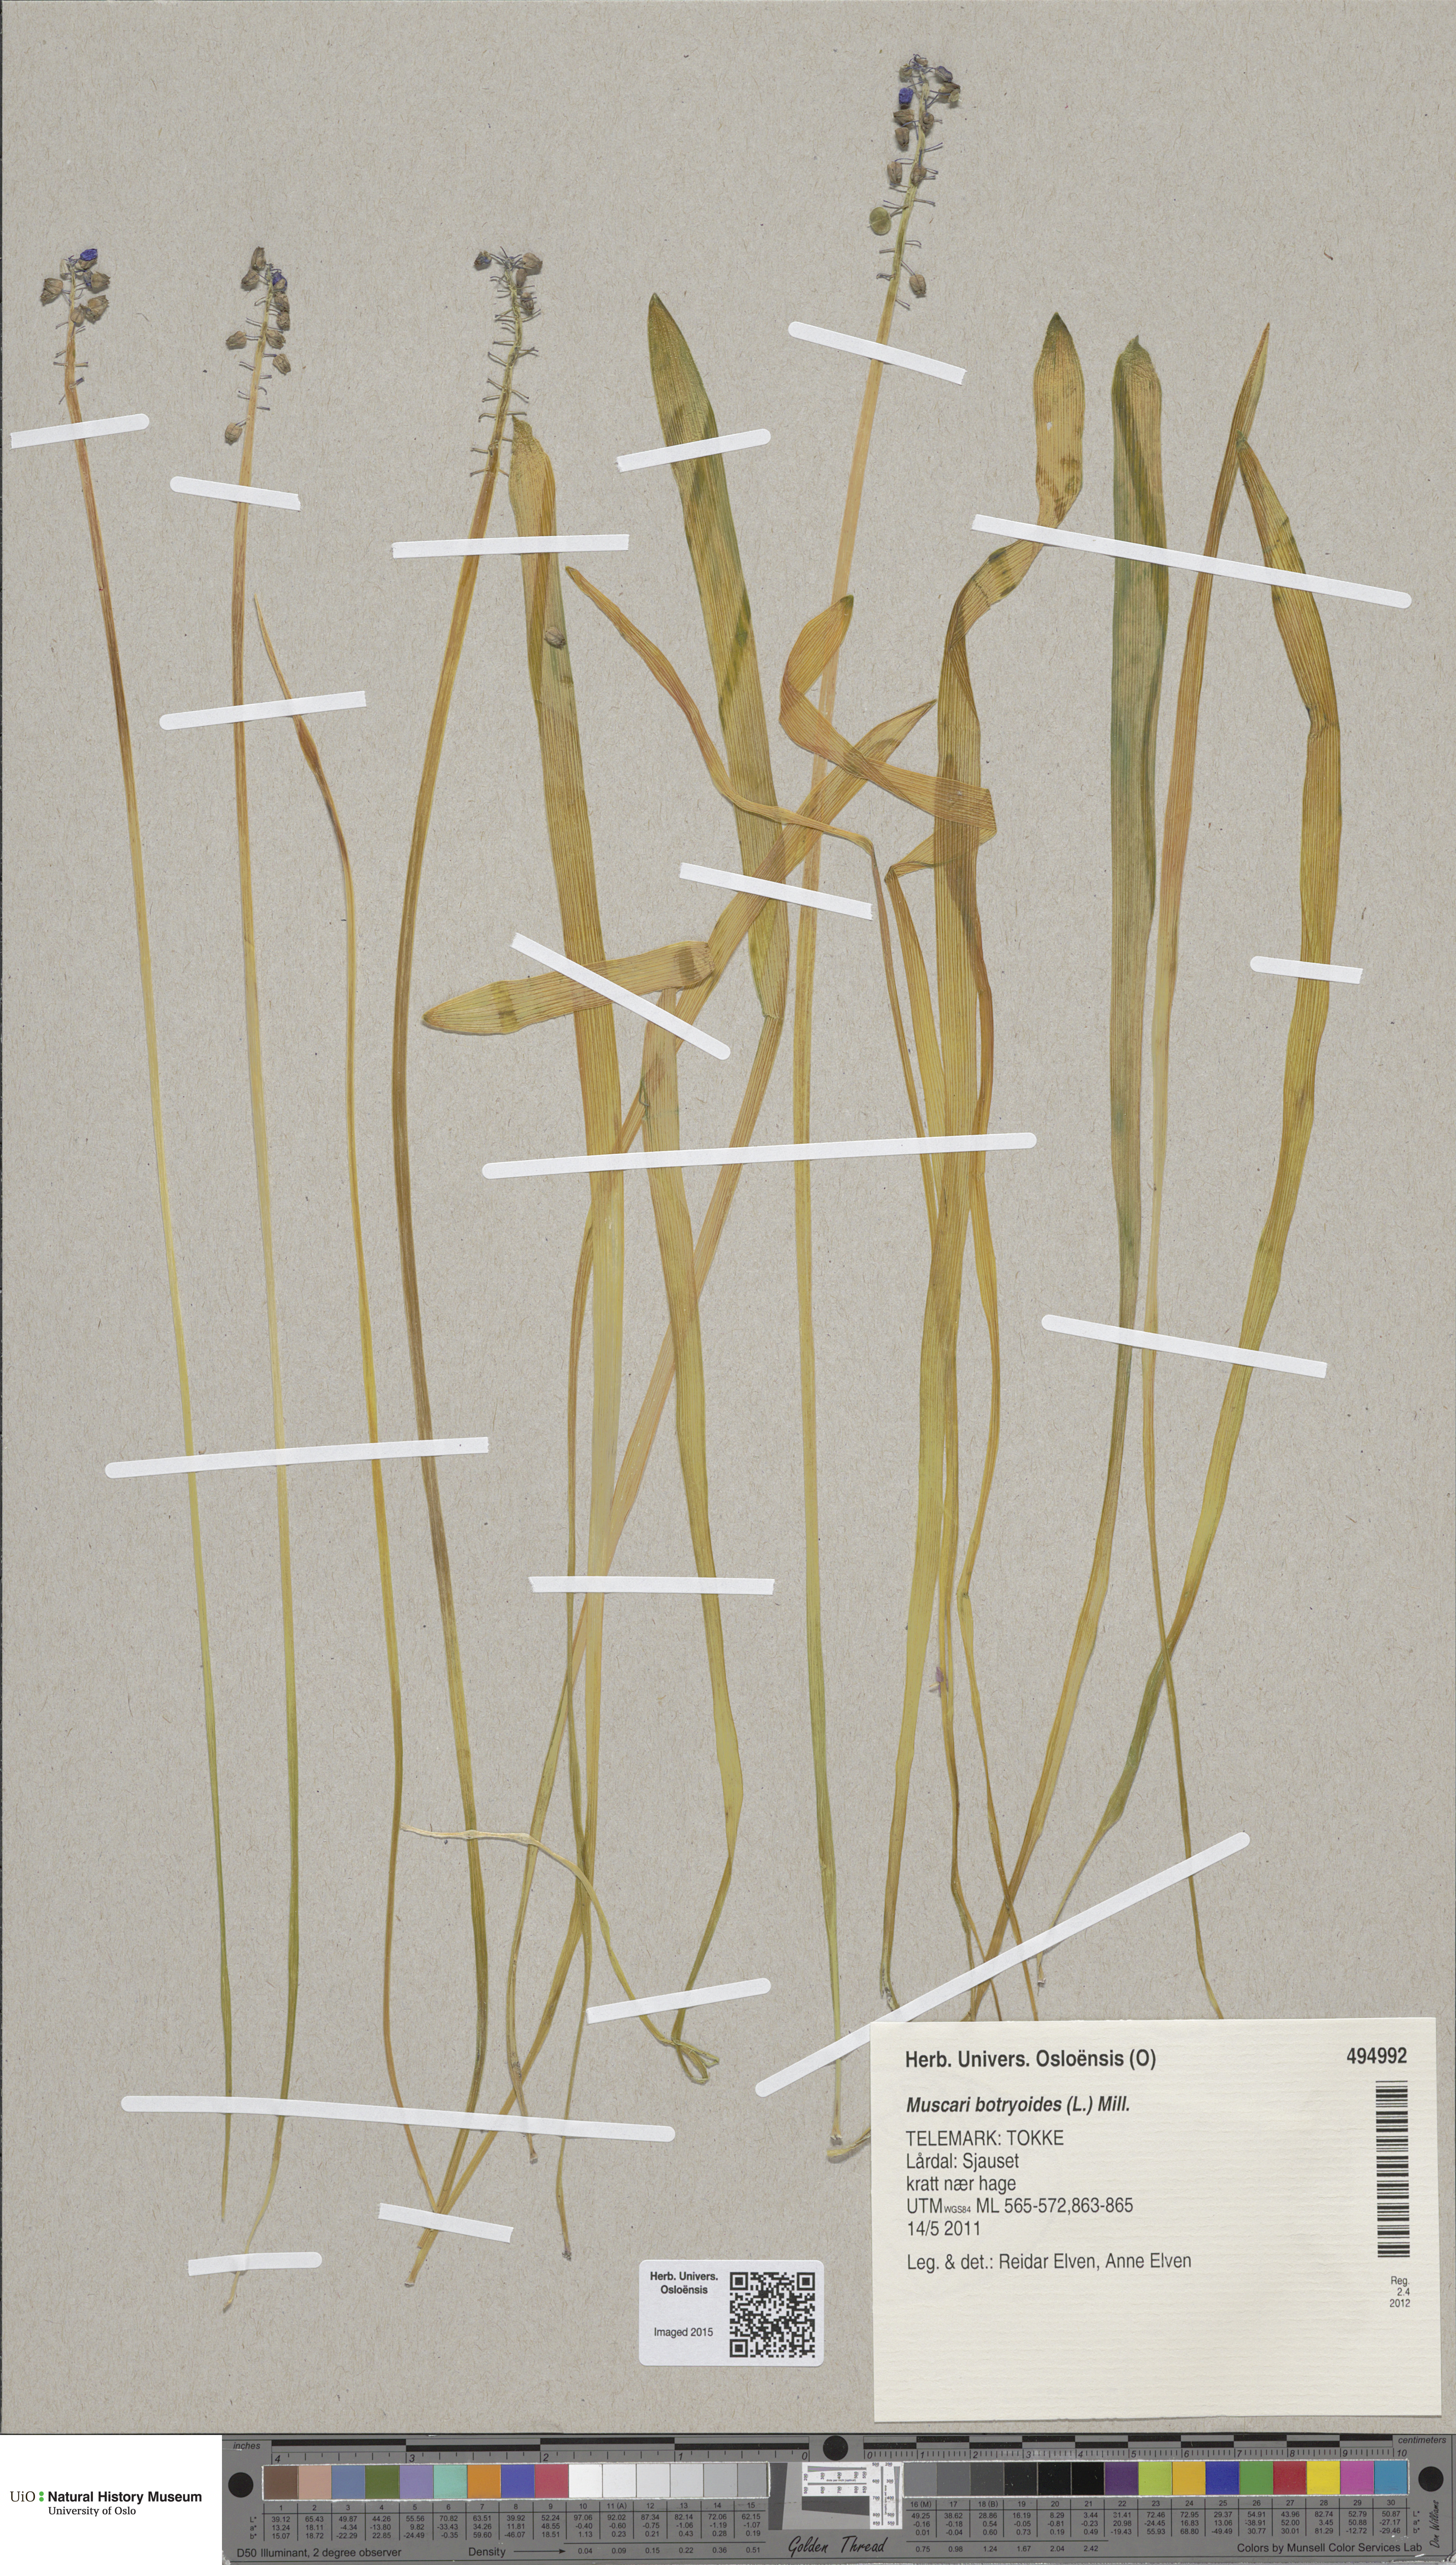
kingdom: Plantae
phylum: Tracheophyta
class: Liliopsida
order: Asparagales
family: Asparagaceae
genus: Muscari
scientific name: Muscari botryoides
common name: Compact grape-hyacinth
